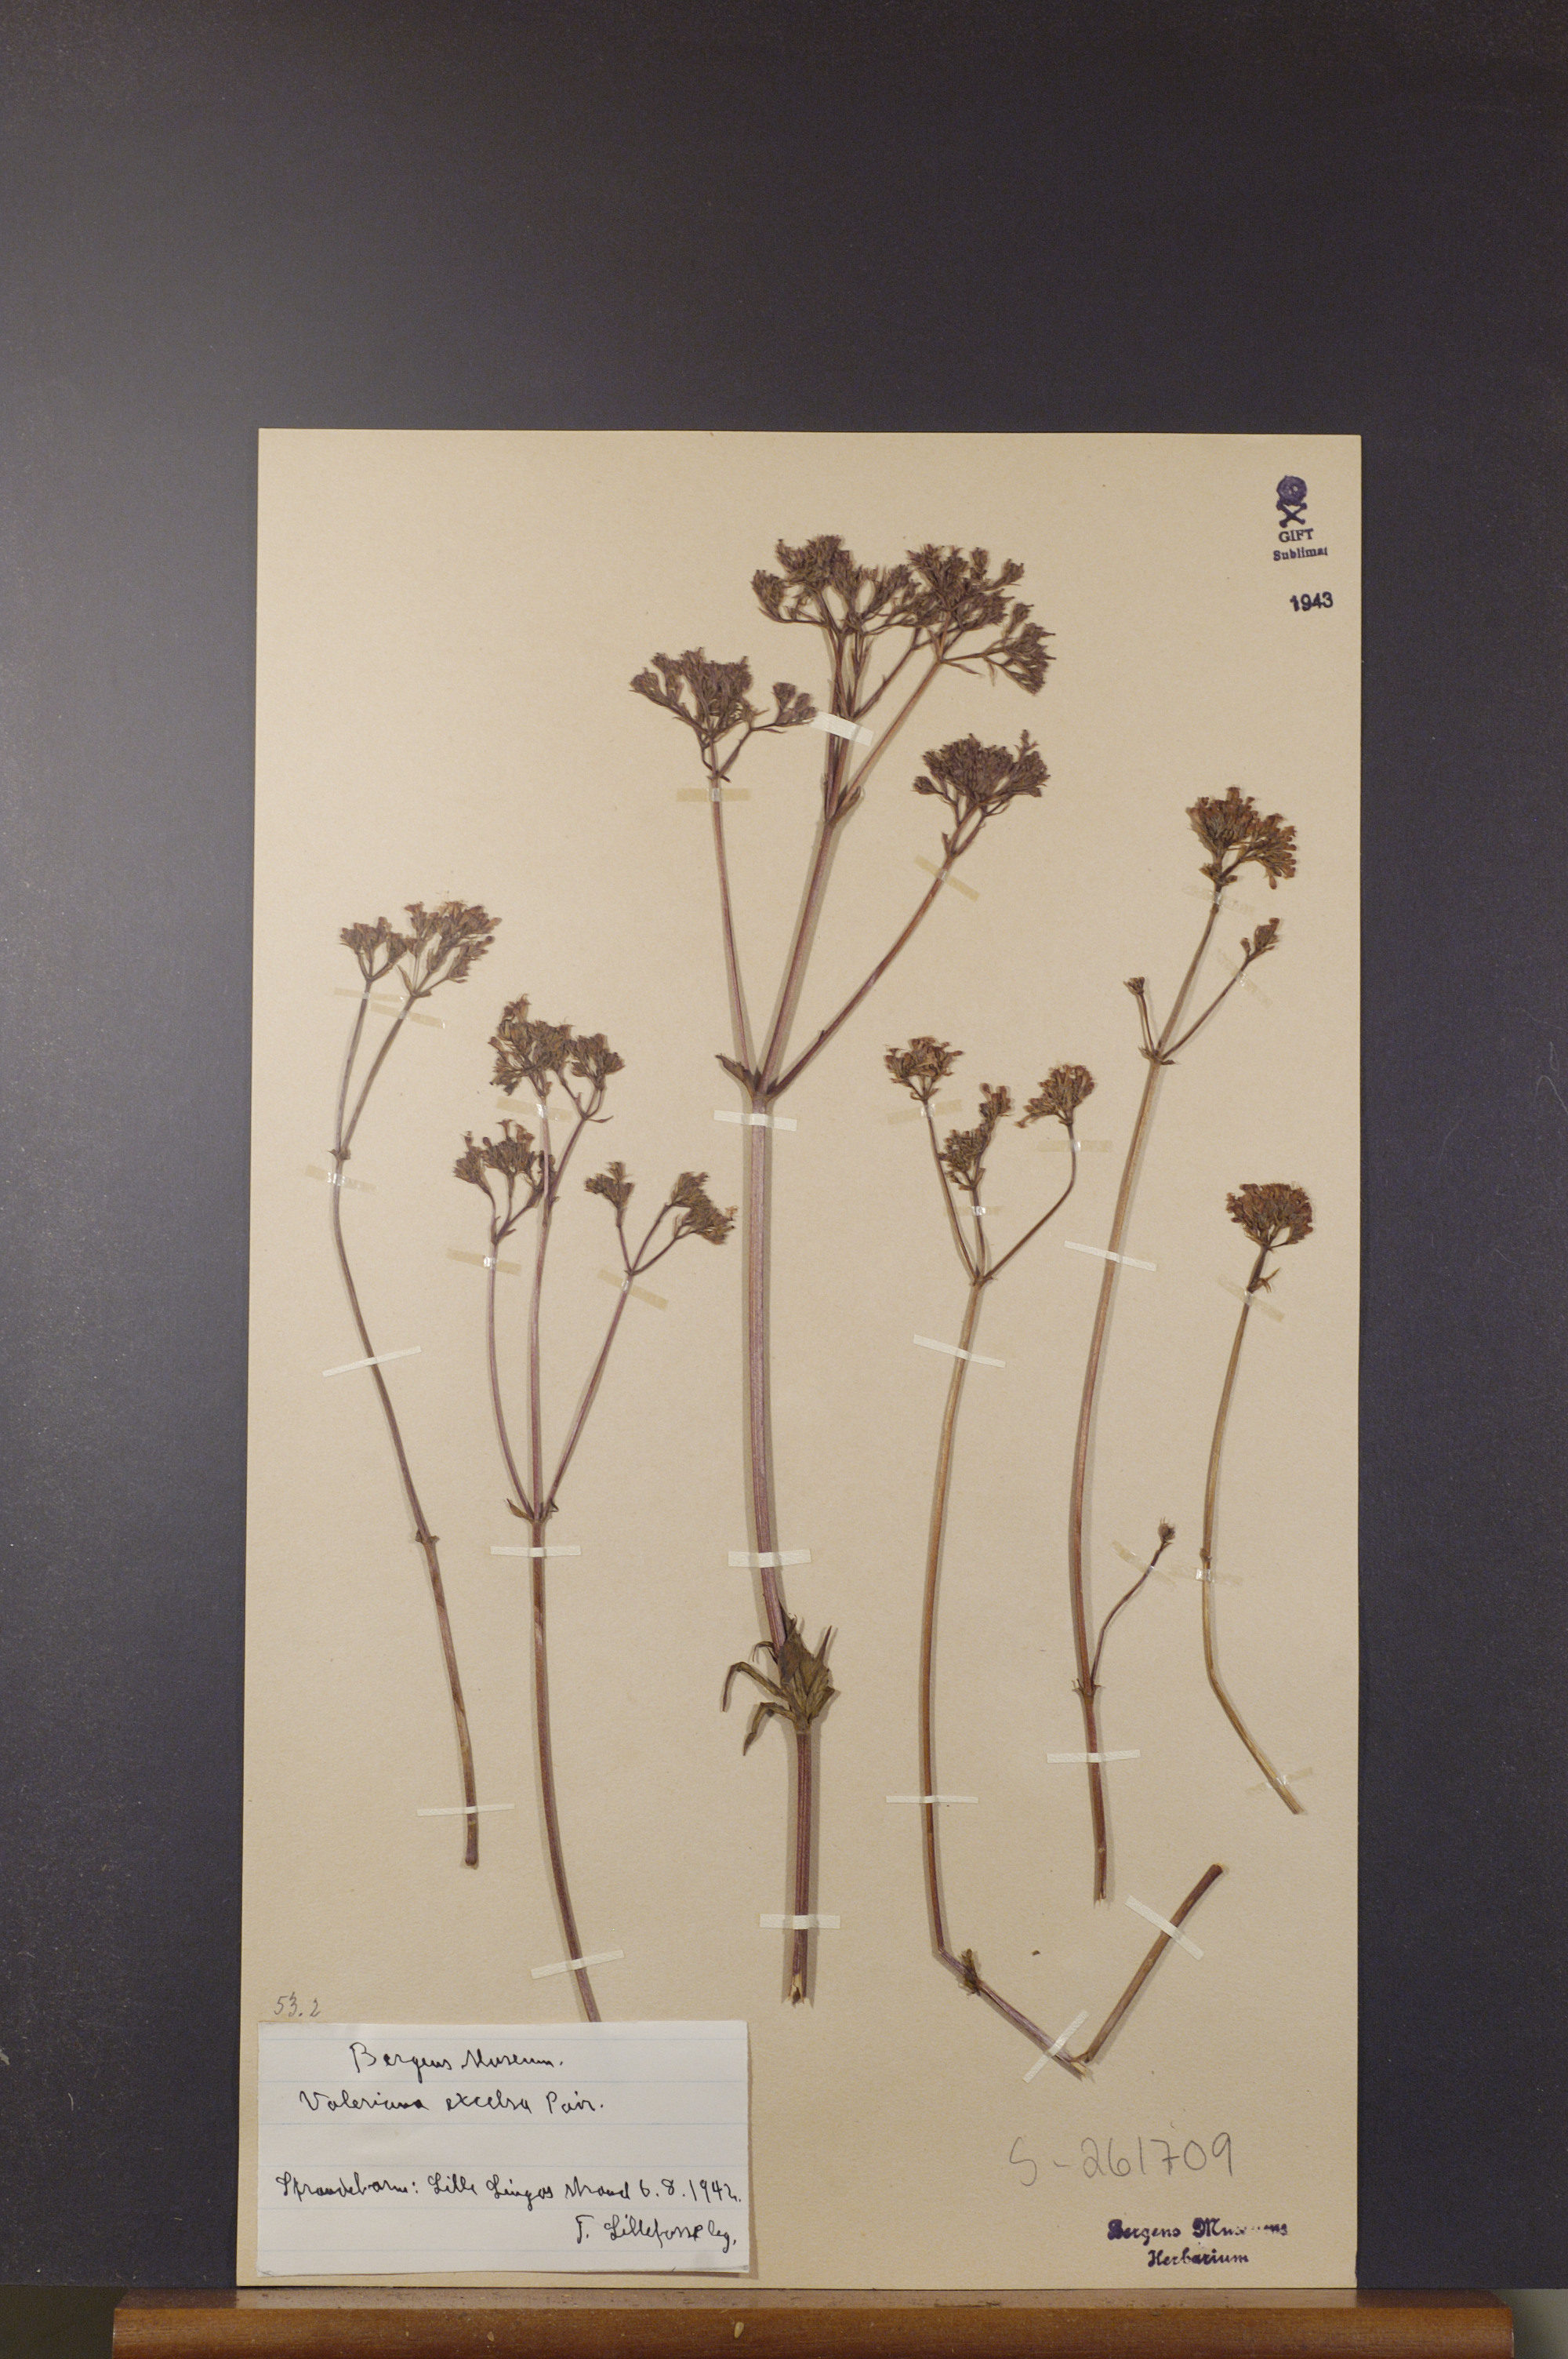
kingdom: Plantae
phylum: Tracheophyta
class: Magnoliopsida
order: Dipsacales
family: Caprifoliaceae
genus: Valeriana
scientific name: Valeriana sambucifolia
